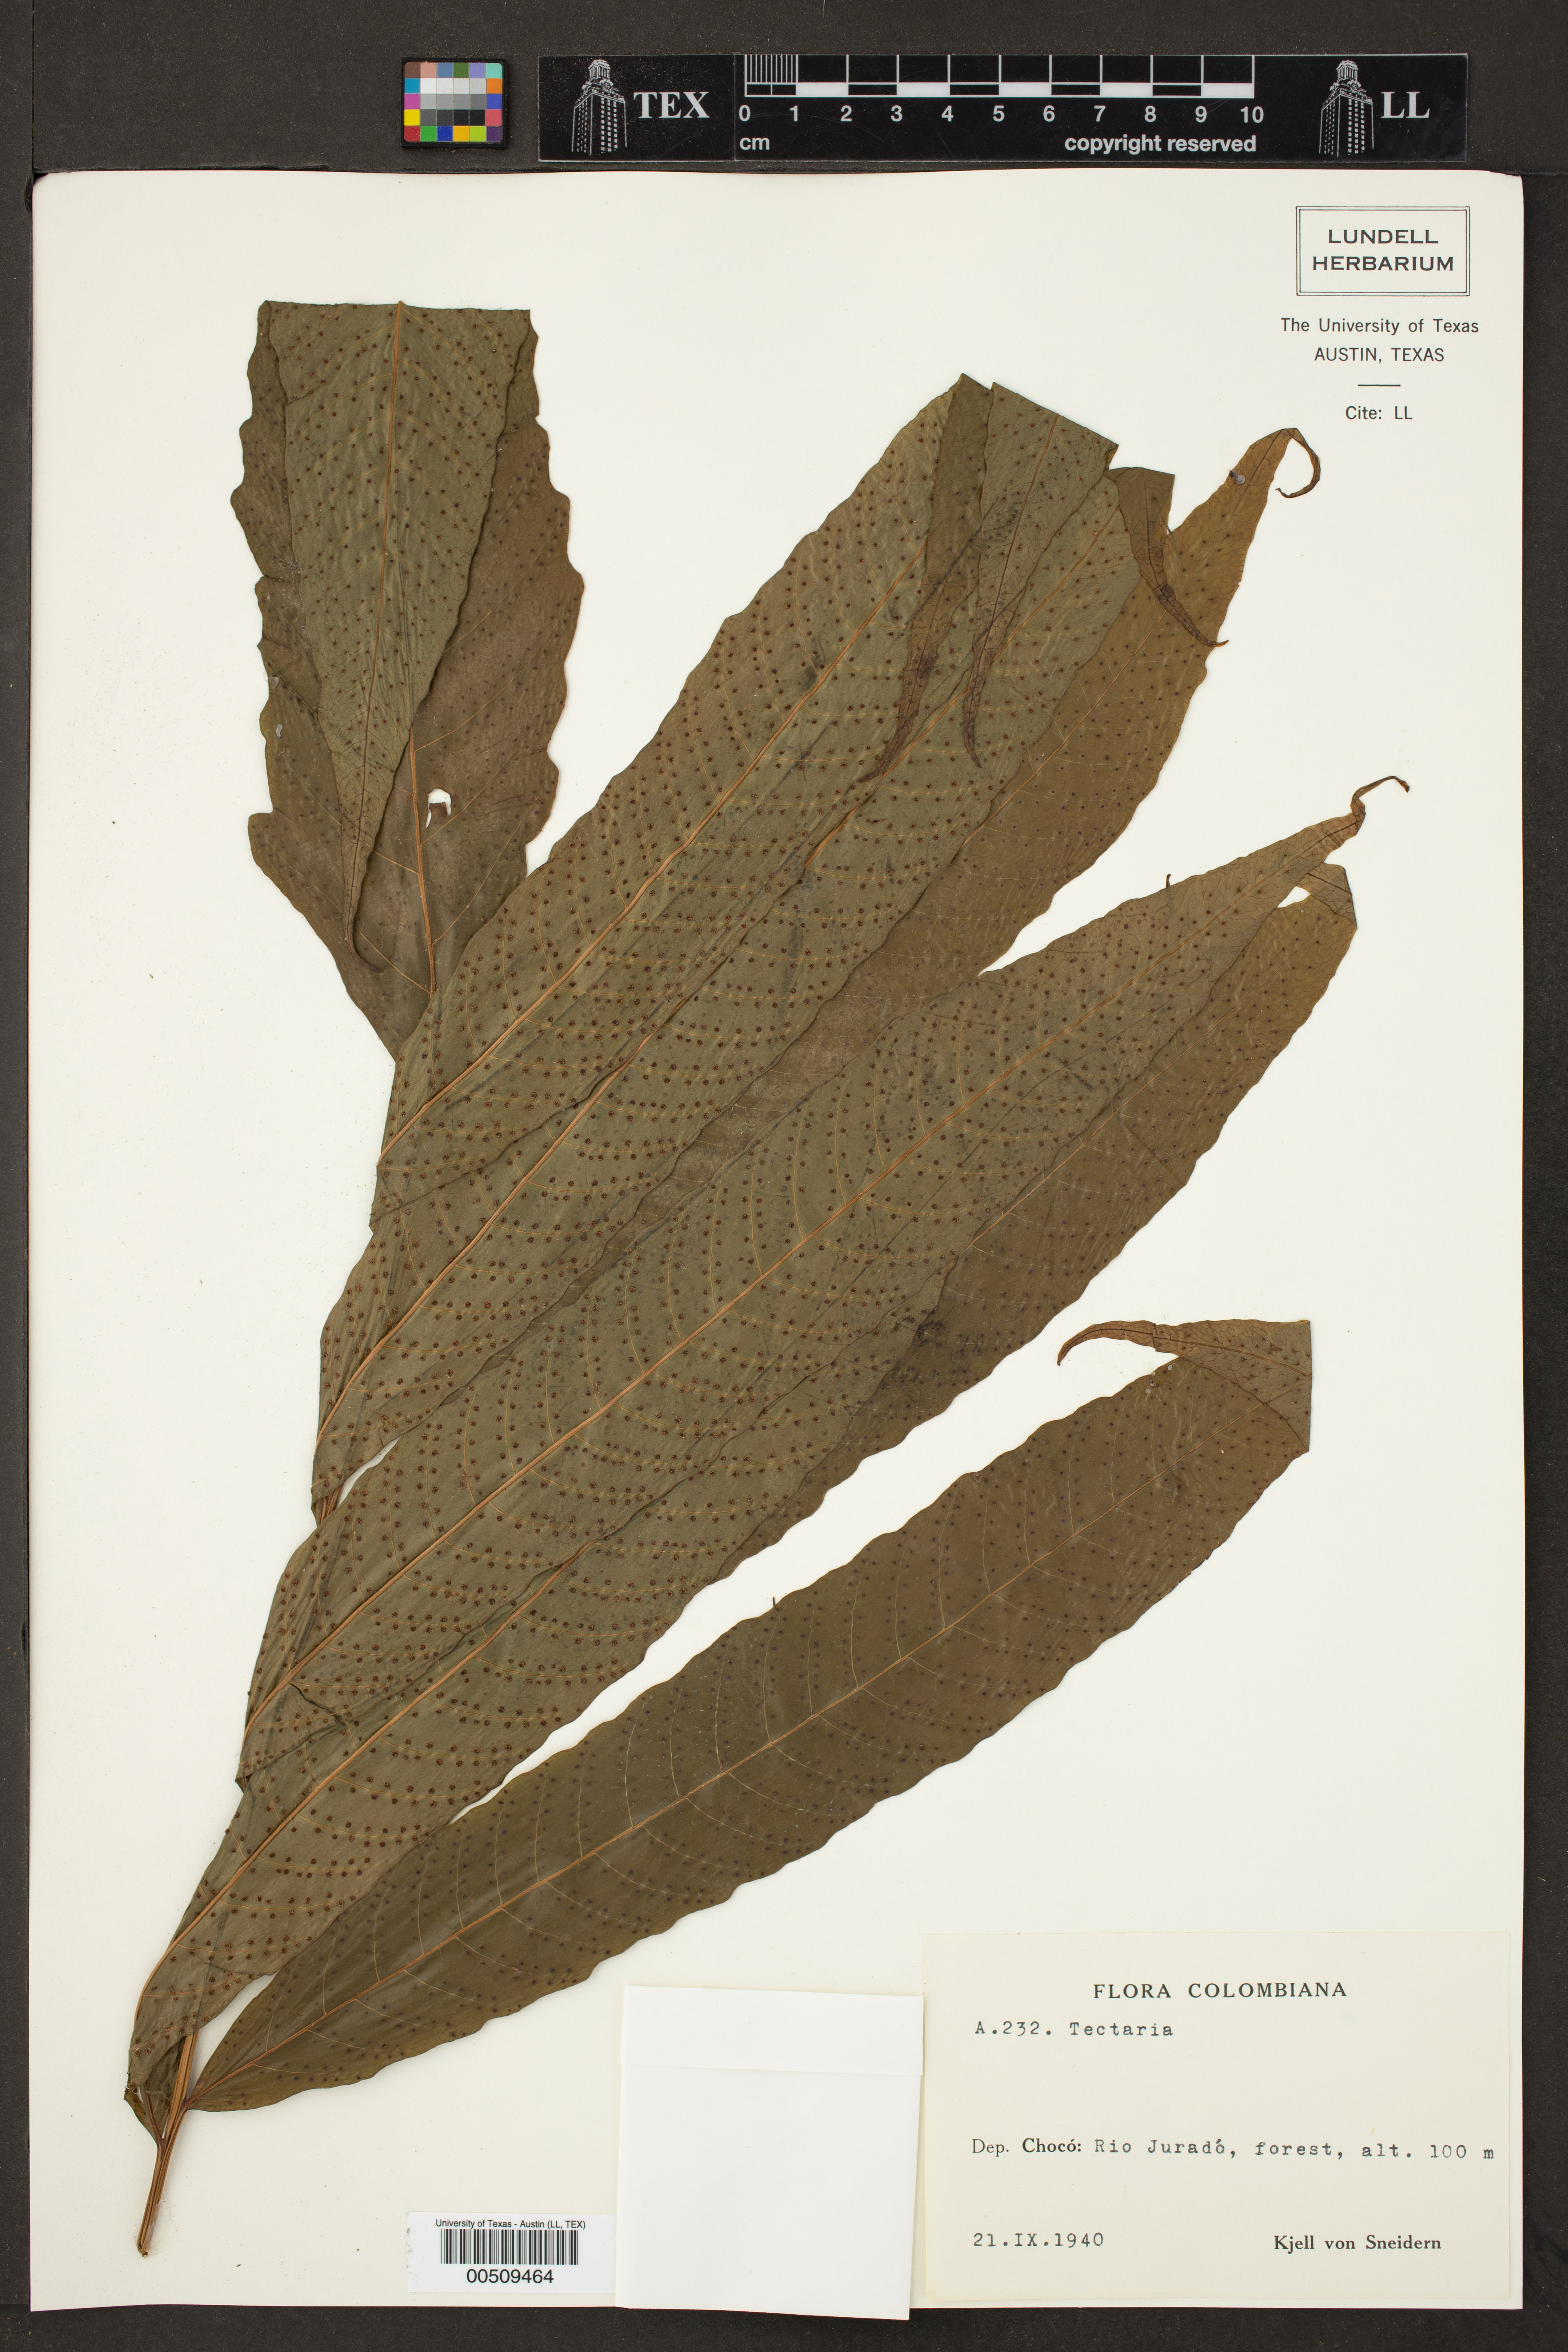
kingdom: Plantae
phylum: Tracheophyta
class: Polypodiopsida
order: Polypodiales
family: Tectariaceae
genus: Tectaria
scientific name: Tectaria
